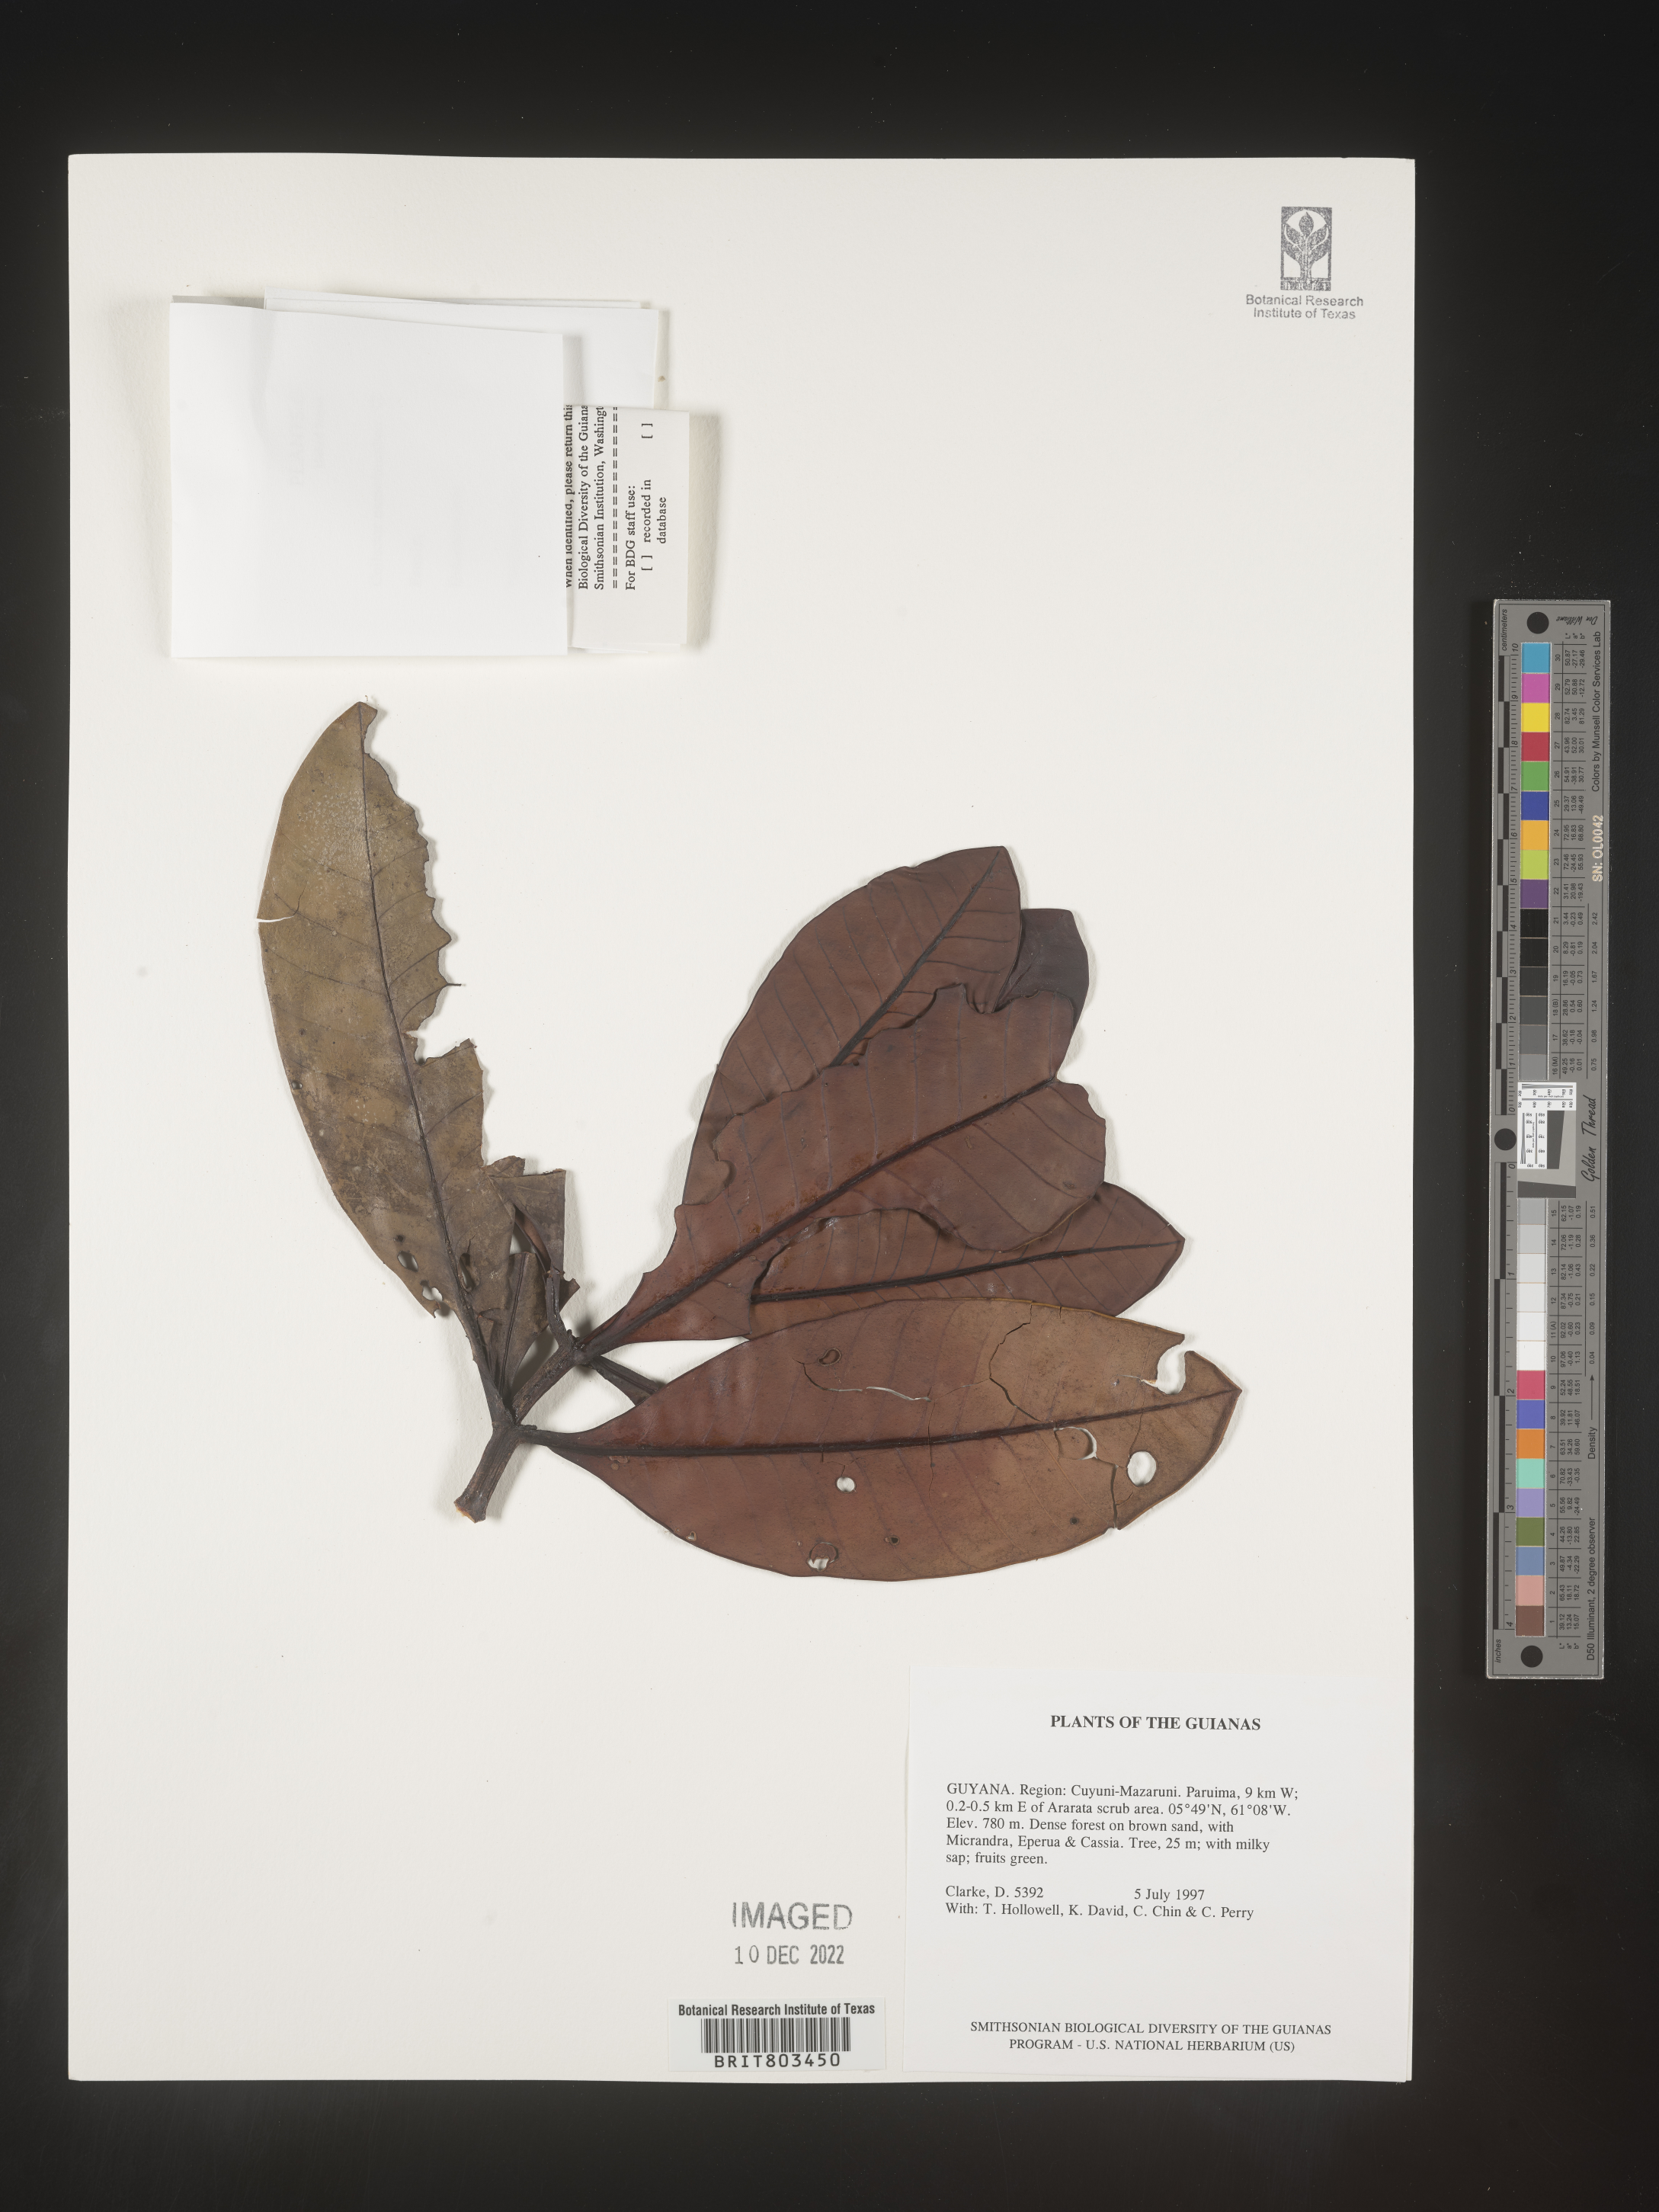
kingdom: Plantae
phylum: Tracheophyta
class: Magnoliopsida
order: Malpighiales
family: Clusiaceae
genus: Tovomita
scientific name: Tovomita
